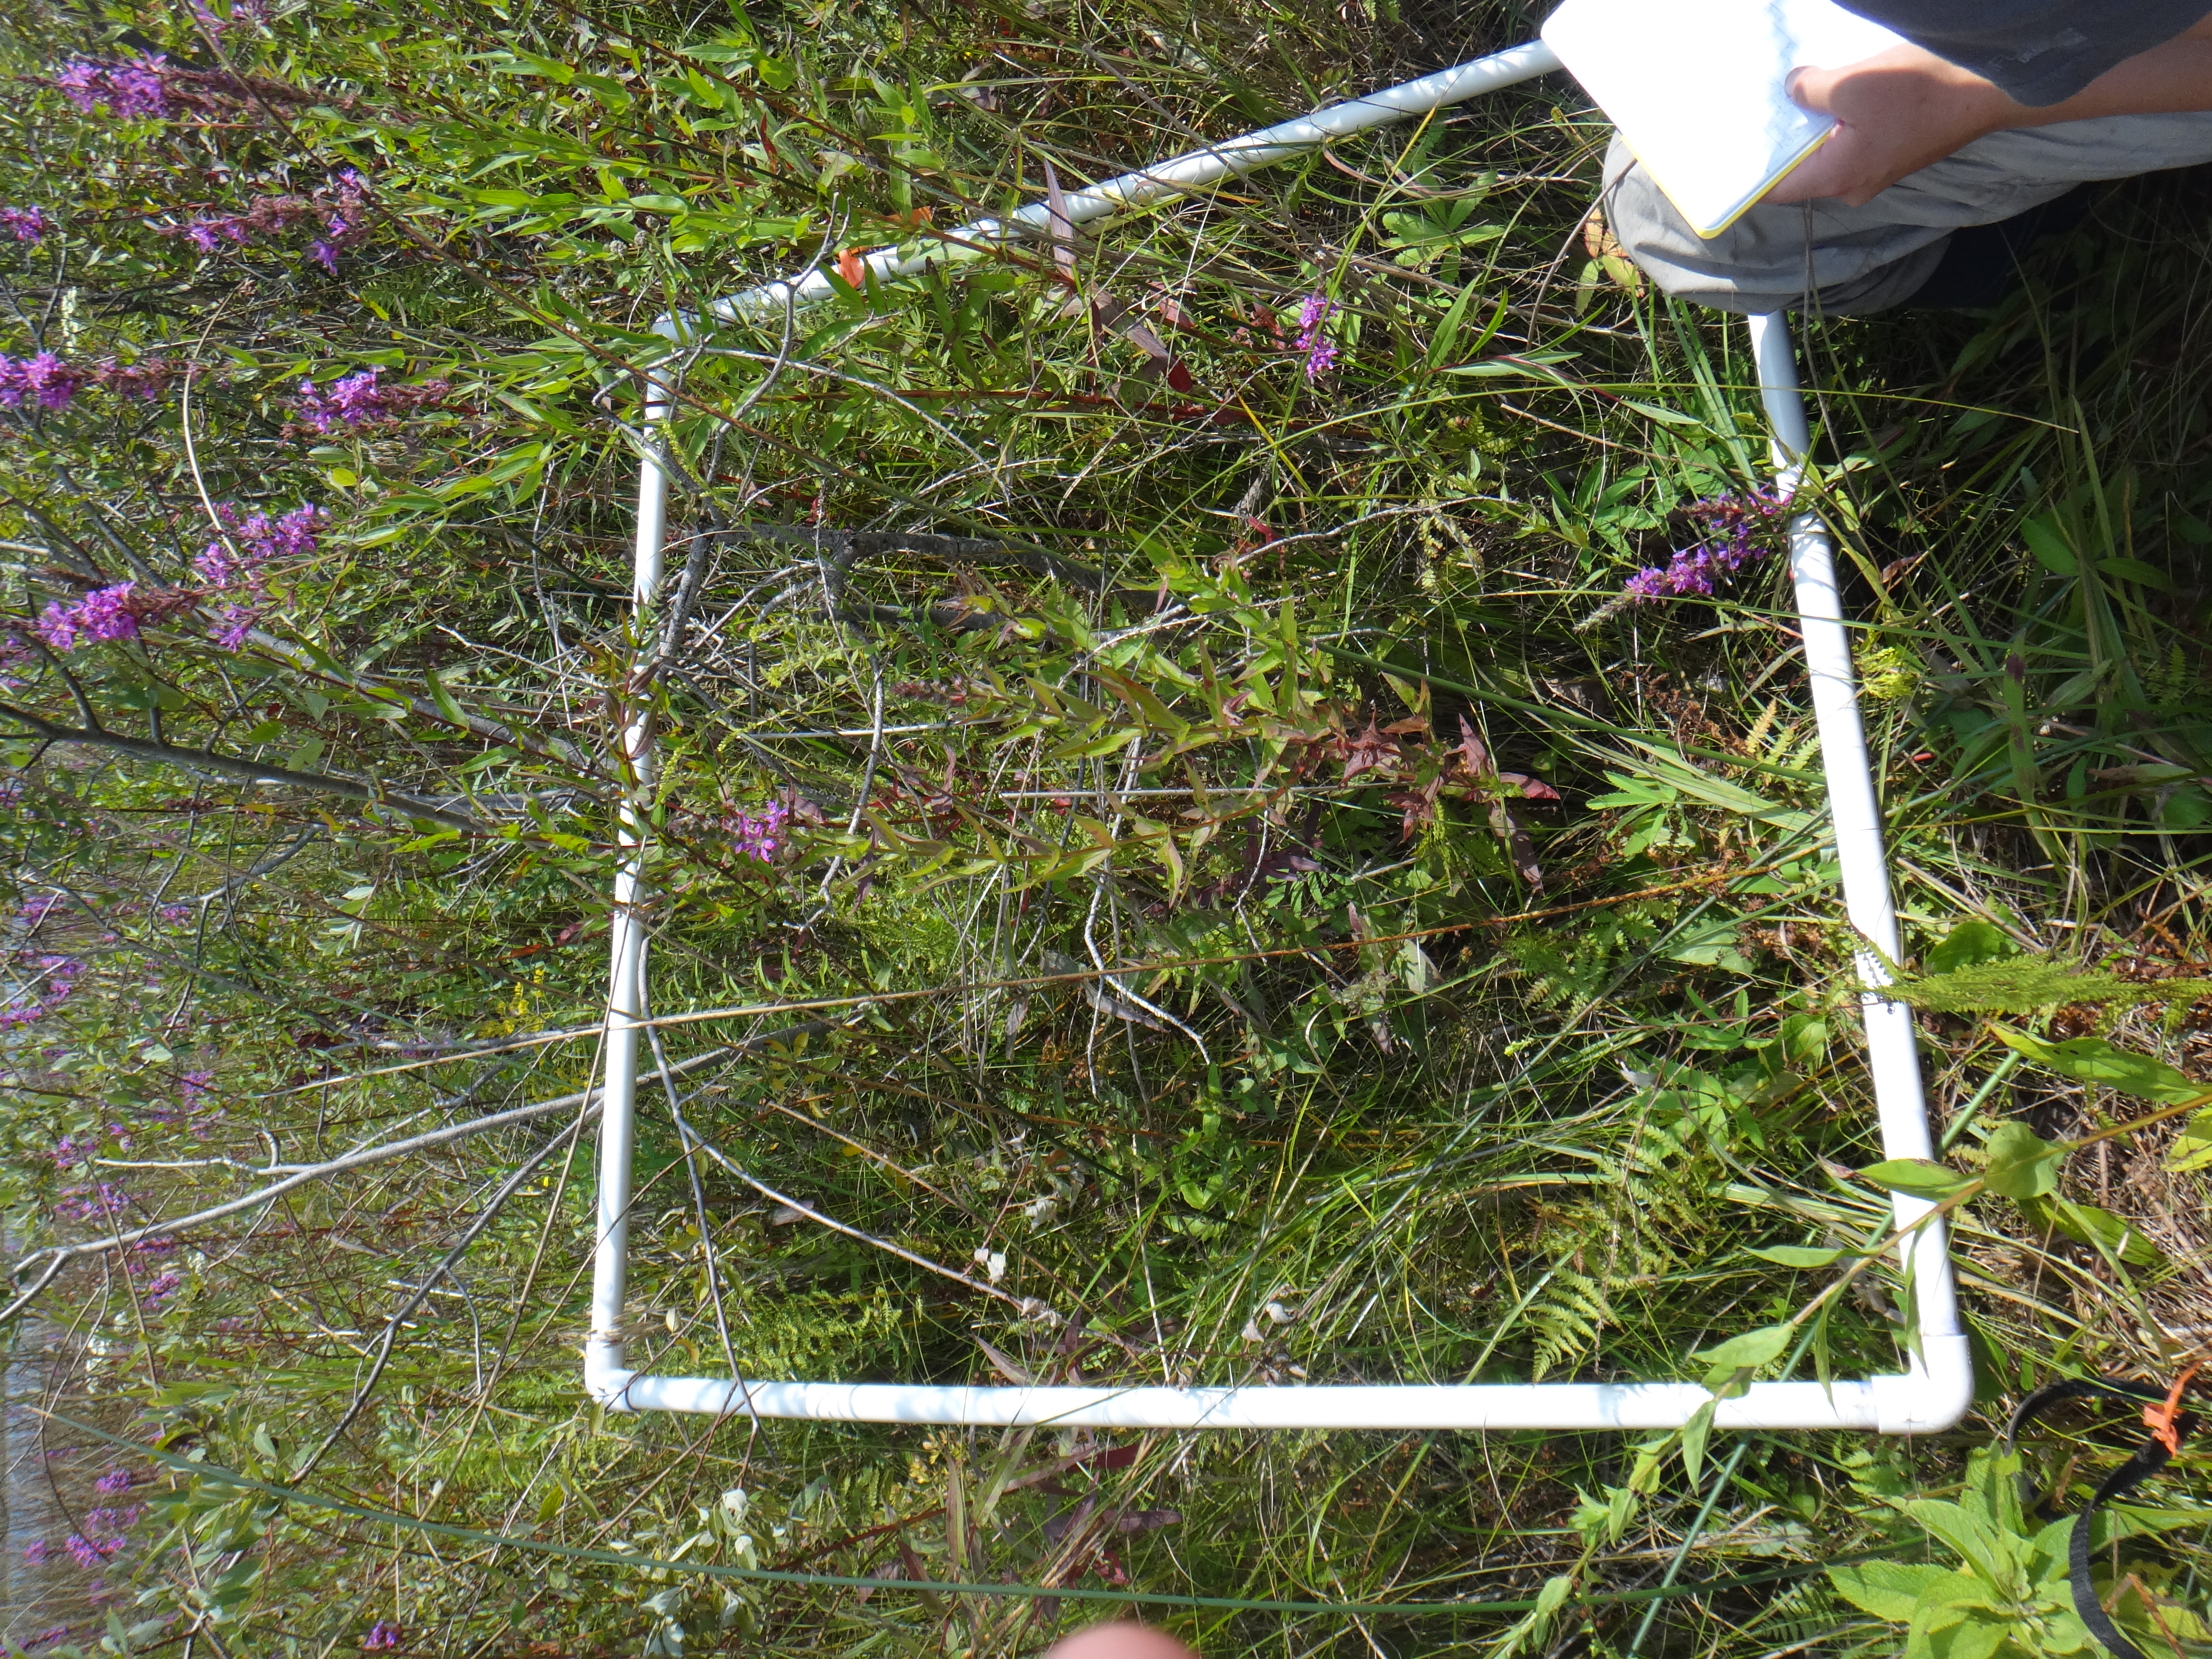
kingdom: Plantae
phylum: Tracheophyta
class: Magnoliopsida
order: Myrtales
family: Lythraceae
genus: Lythrum
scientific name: Lythrum salicaria
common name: Purple loosestrife
